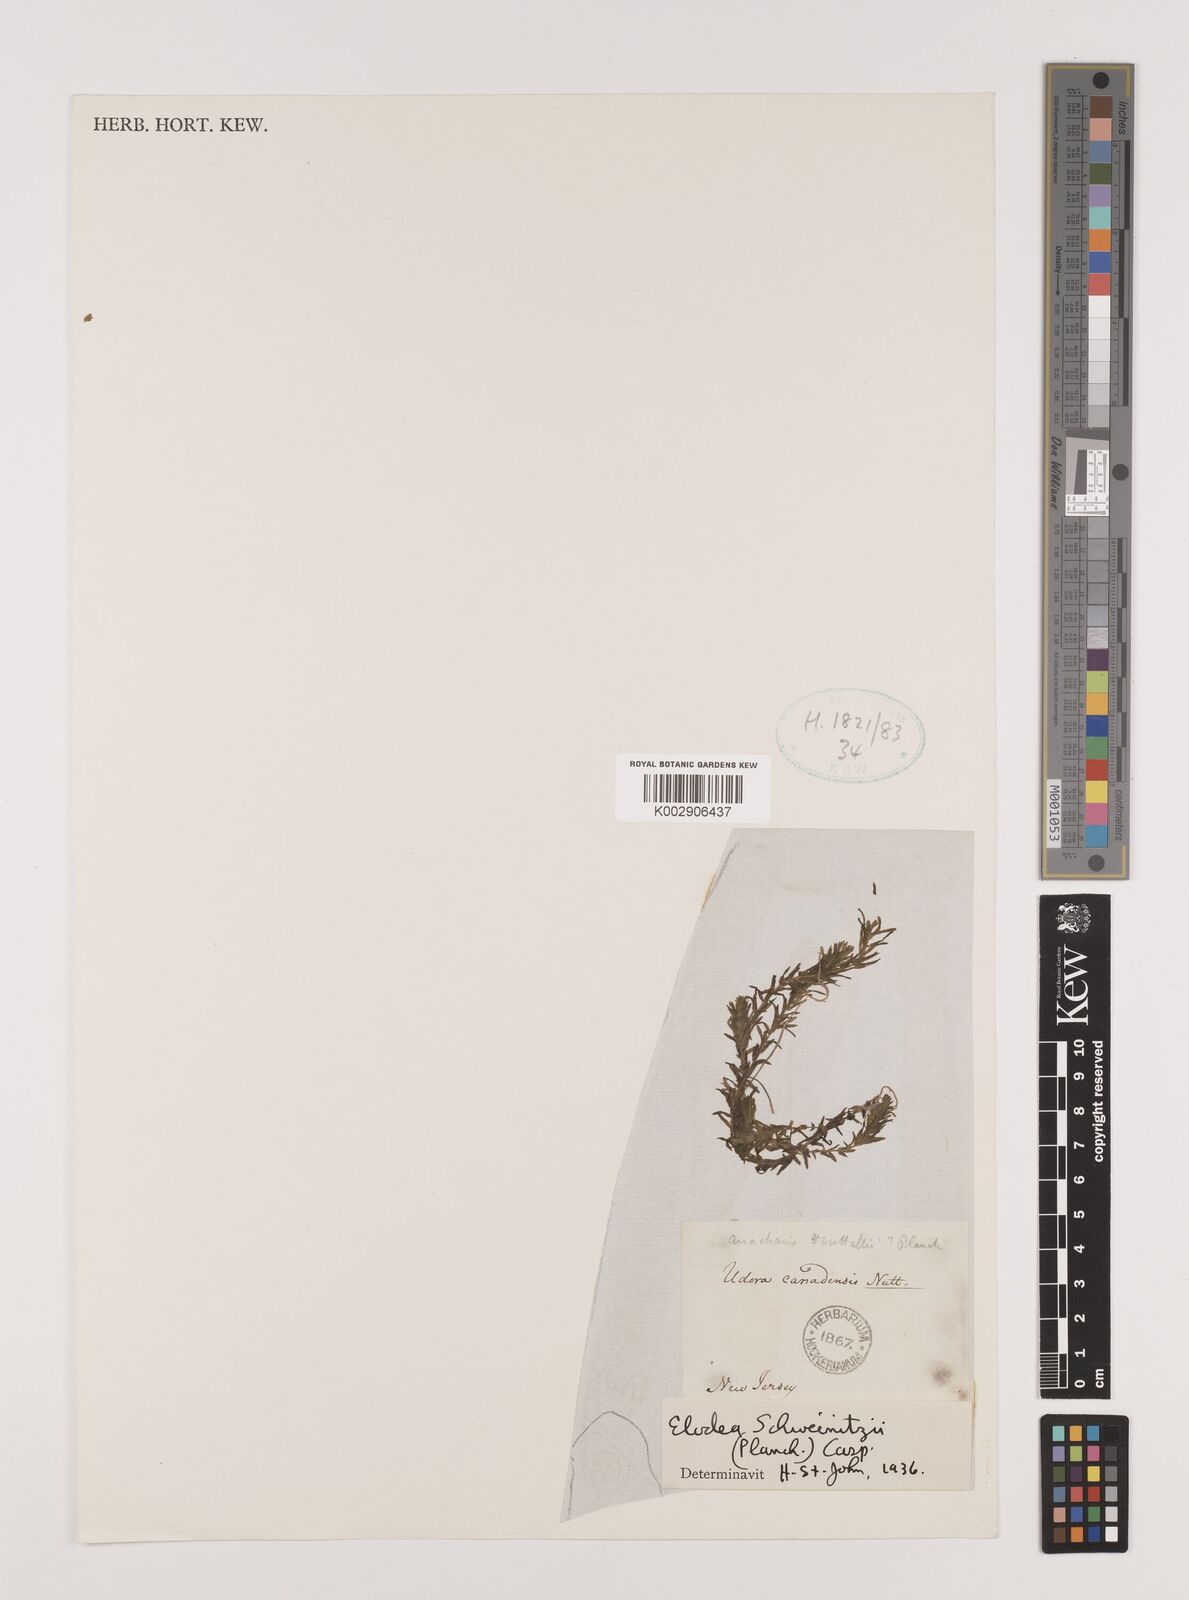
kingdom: Plantae
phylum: Tracheophyta
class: Liliopsida
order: Alismatales
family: Hydrocharitaceae
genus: Elodea
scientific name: Elodea canadensis
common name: Canadian waterweed
